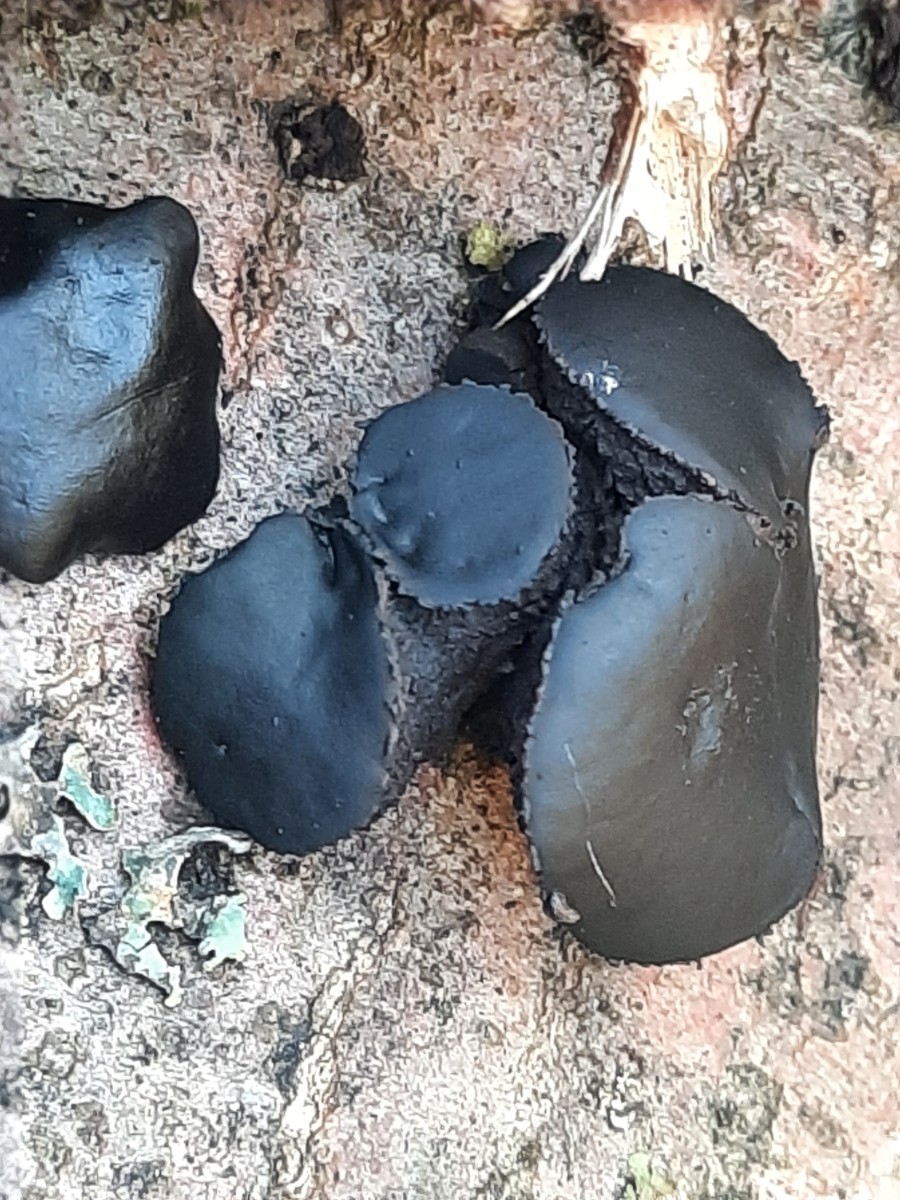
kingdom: Fungi
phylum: Ascomycota
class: Leotiomycetes
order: Phacidiales
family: Phacidiaceae
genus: Bulgaria
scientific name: Bulgaria inquinans
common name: afsmittende topsvamp
